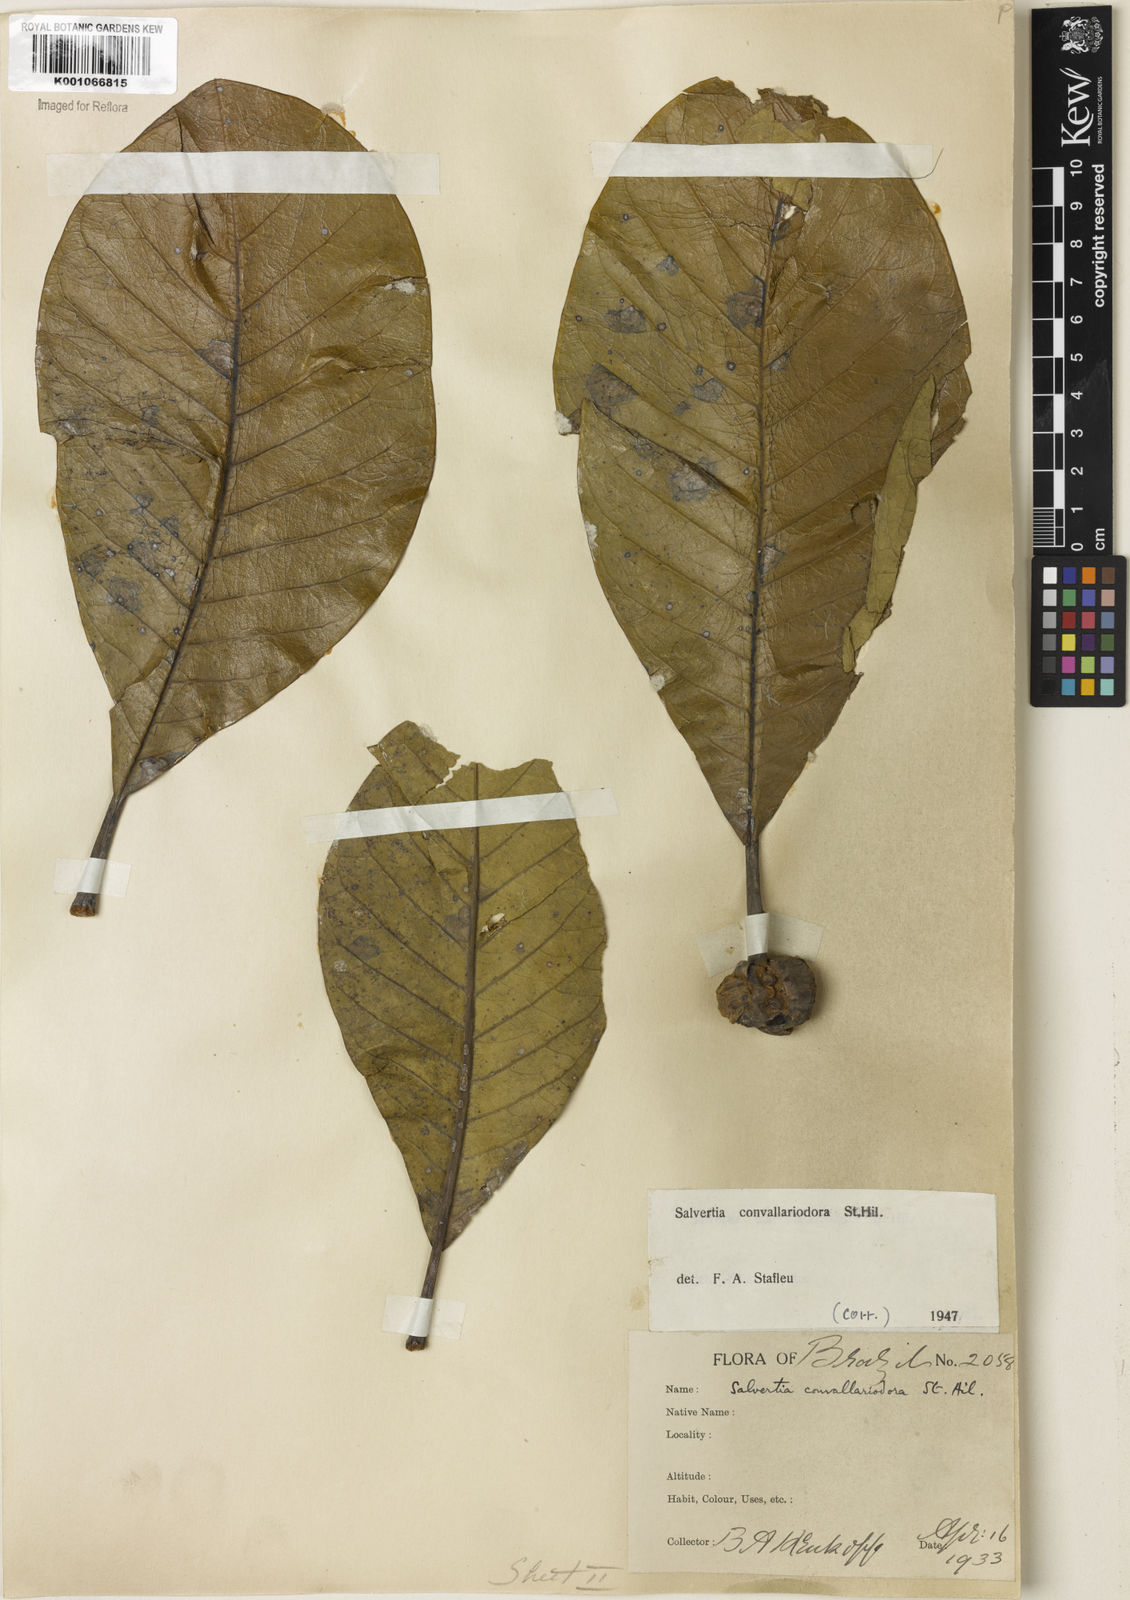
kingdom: Plantae
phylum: Tracheophyta
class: Magnoliopsida
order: Myrtales
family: Vochysiaceae
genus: Salvertia
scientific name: Salvertia convallariodora
